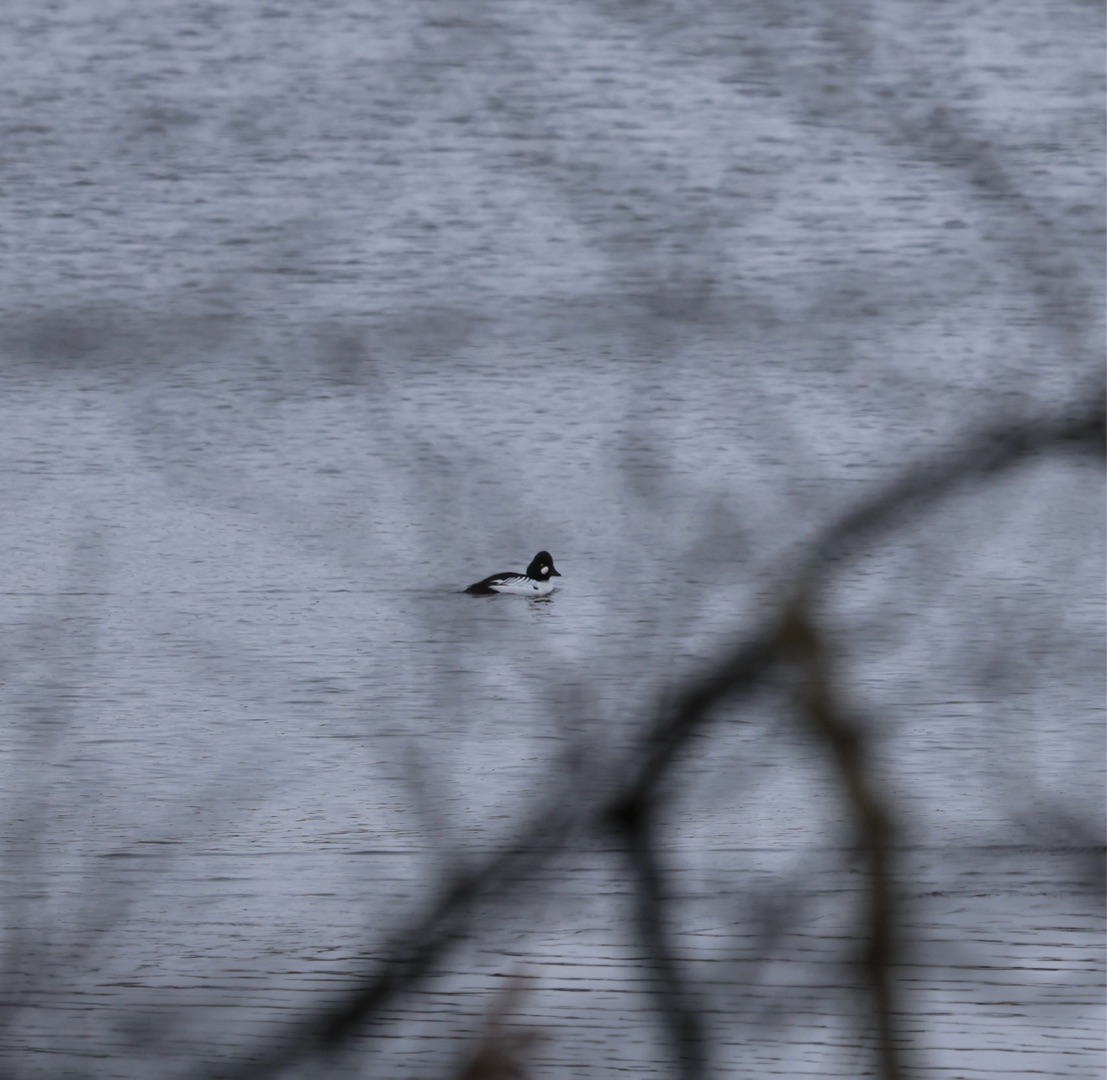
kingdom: Animalia
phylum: Chordata
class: Aves
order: Anseriformes
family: Anatidae
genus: Bucephala
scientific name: Bucephala clangula
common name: Hvinand
